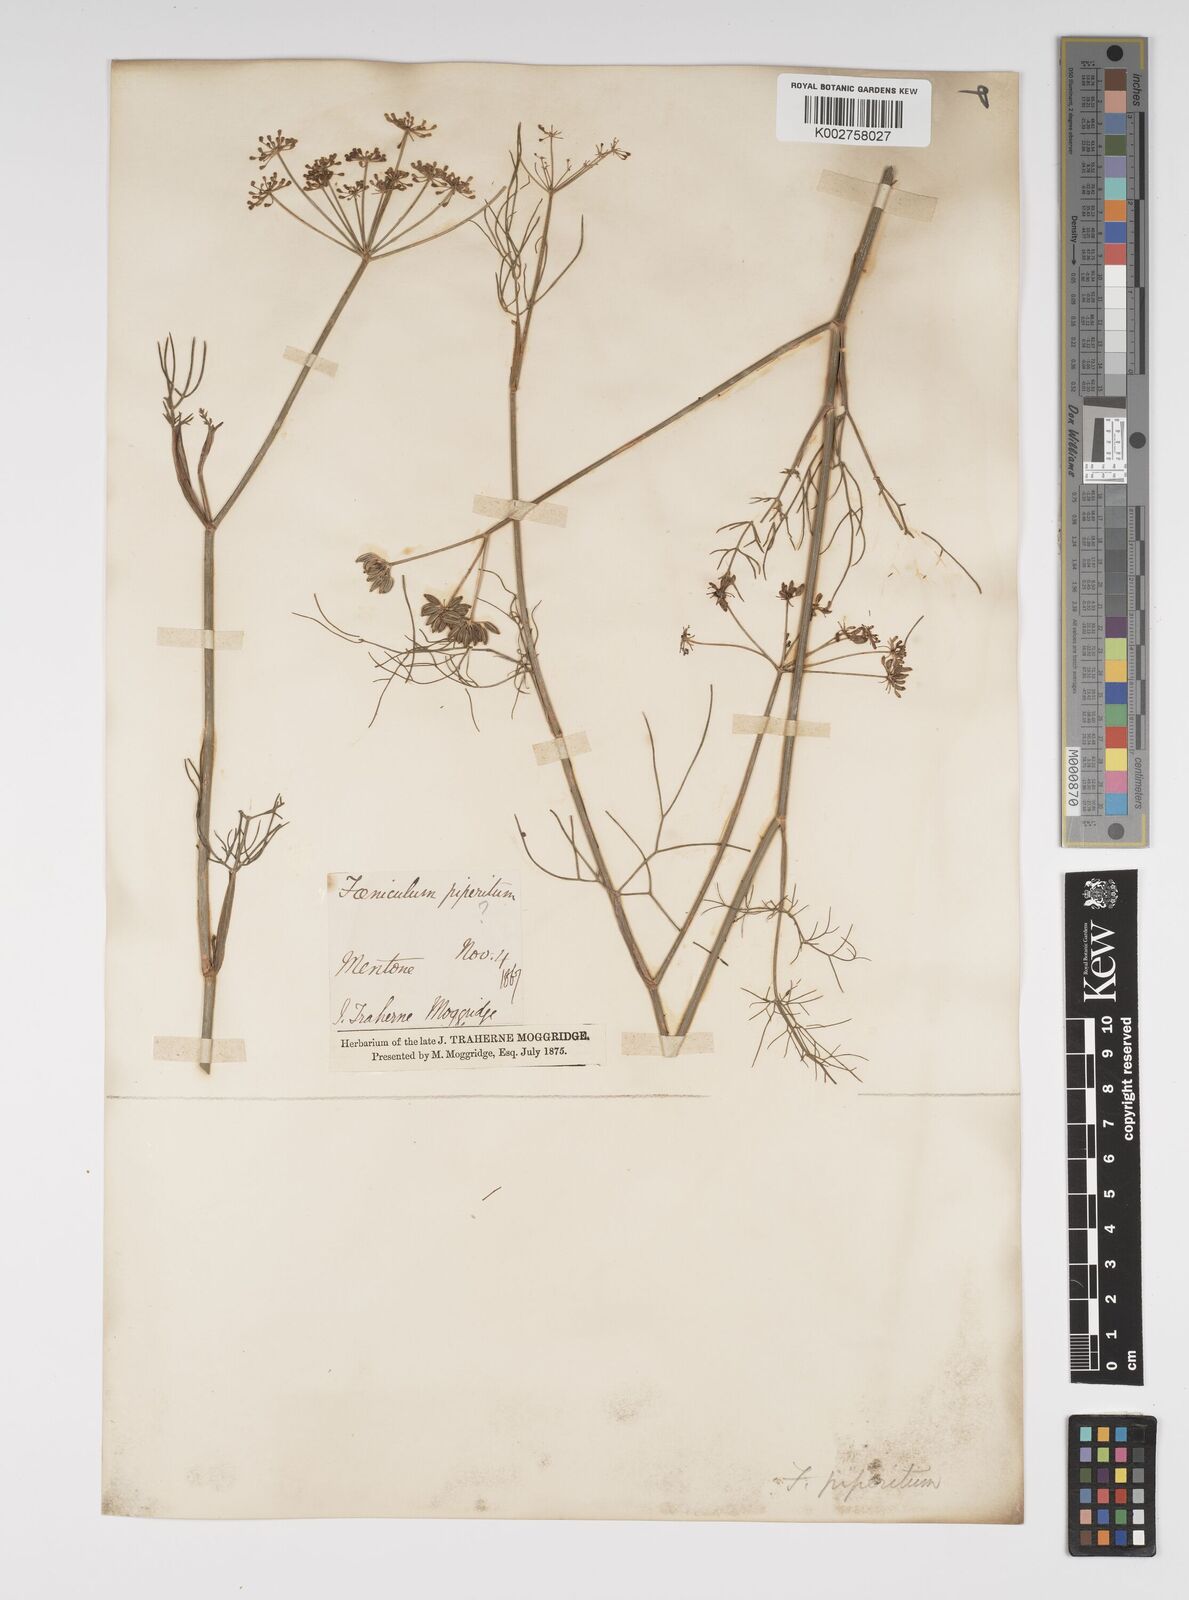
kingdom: Plantae
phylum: Tracheophyta
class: Magnoliopsida
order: Apiales
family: Apiaceae
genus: Foeniculum
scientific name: Foeniculum vulgare
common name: Fennel
